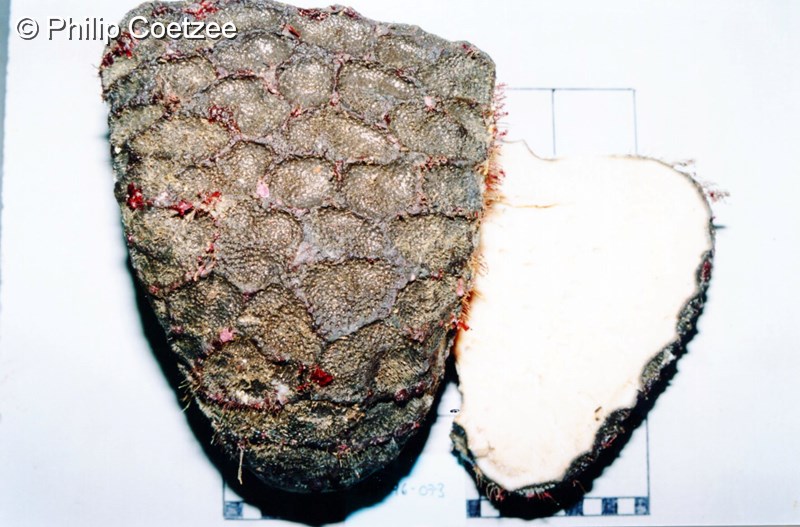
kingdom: Animalia
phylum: Porifera
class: Demospongiae
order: Tetractinellida
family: Ancorinidae
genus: Stelletta
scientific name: Stelletta trisclera
